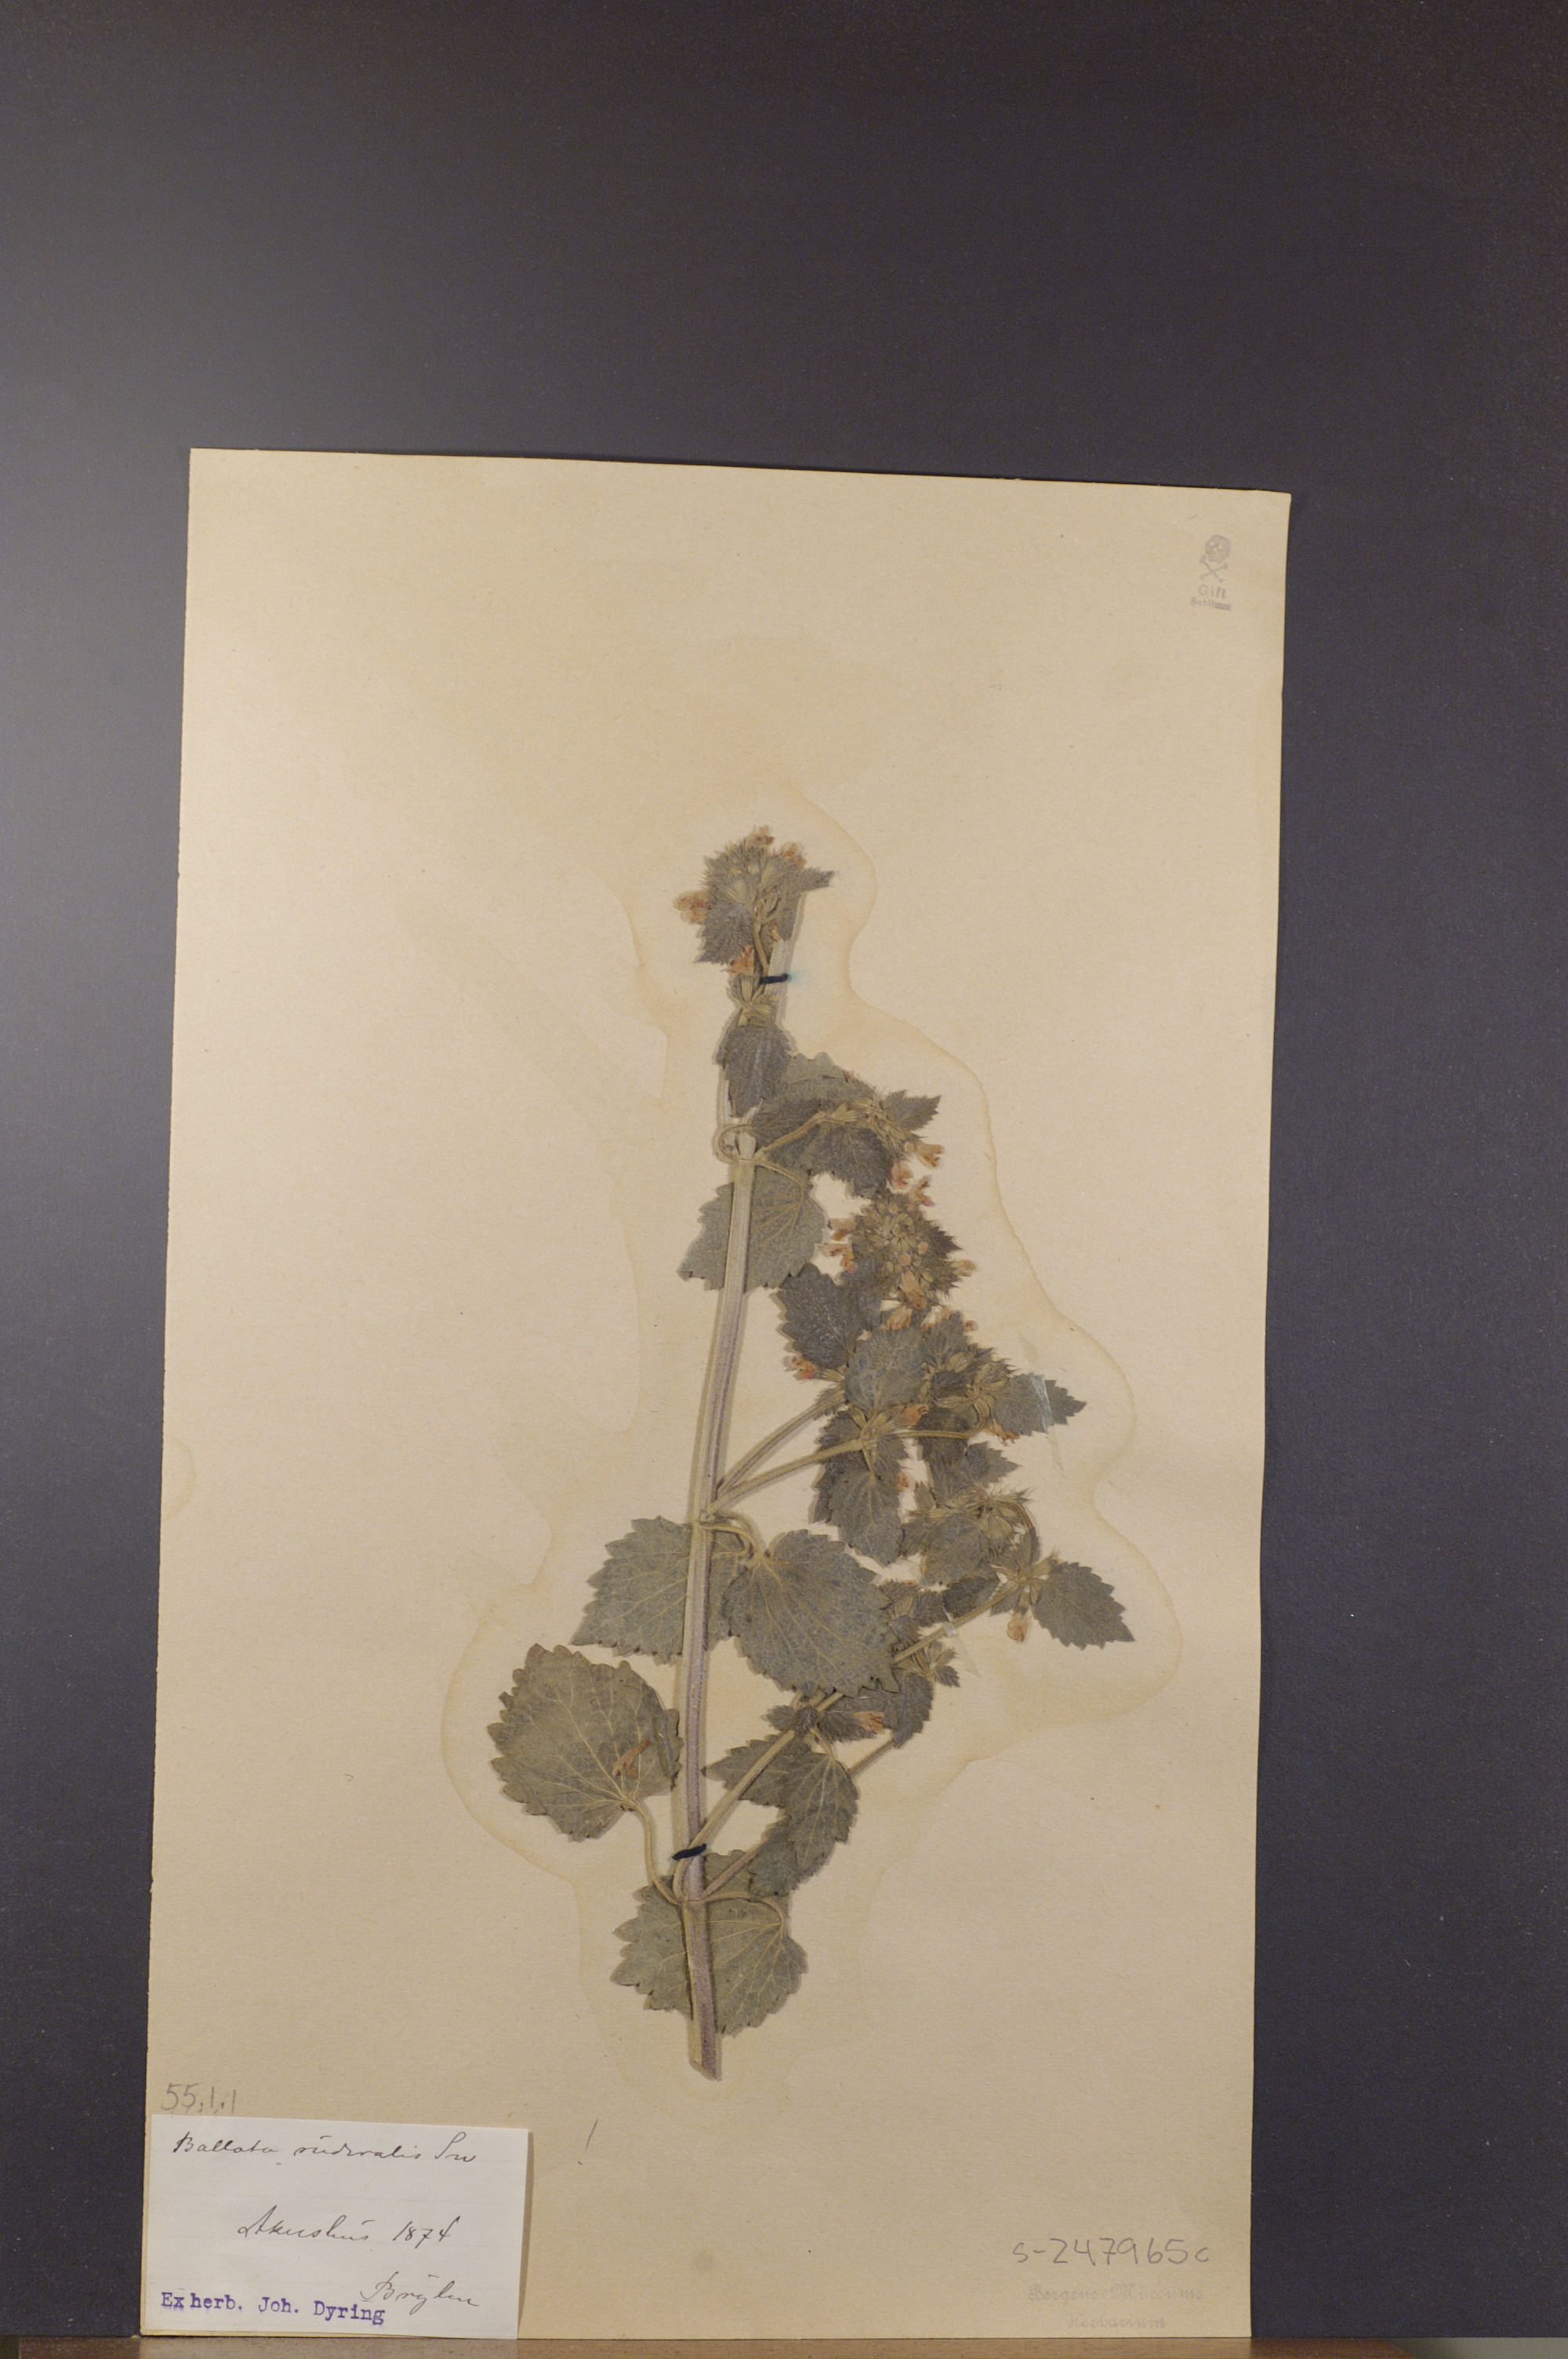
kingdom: Plantae
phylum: Tracheophyta
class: Magnoliopsida
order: Lamiales
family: Lamiaceae
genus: Ballota
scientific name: Ballota nigra
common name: Black horehound
